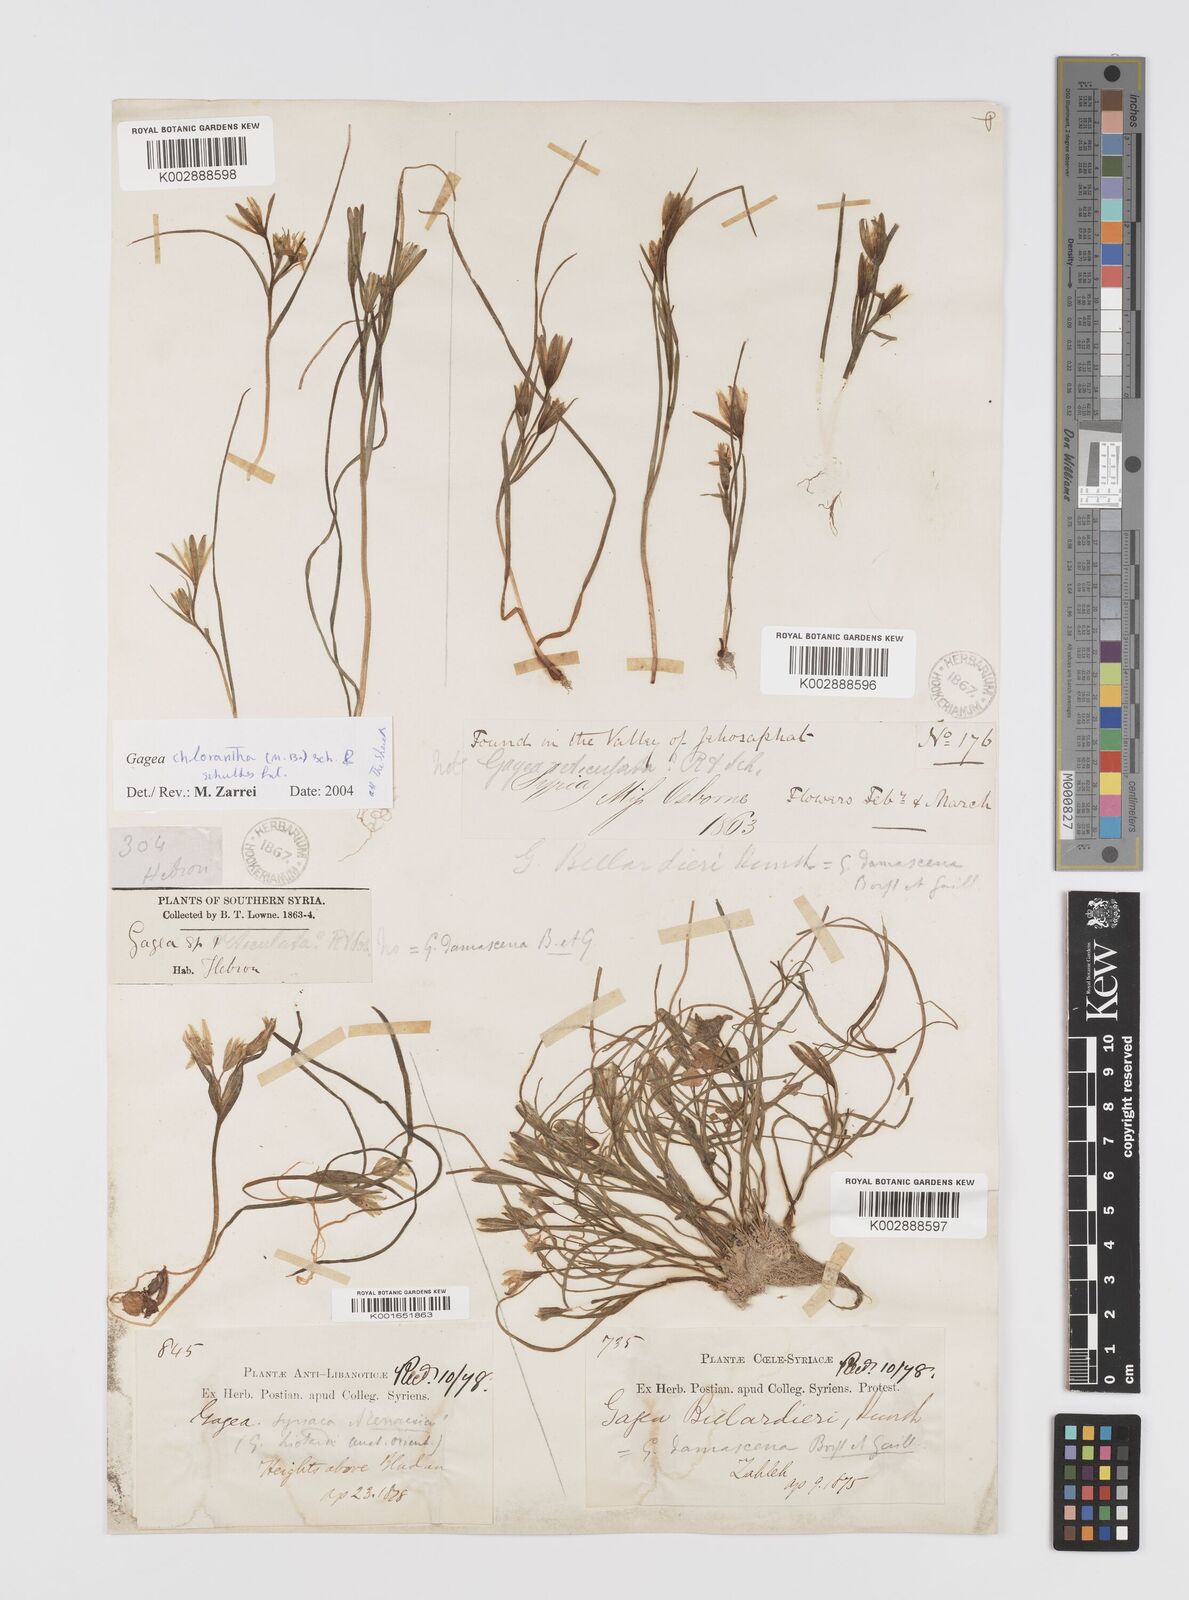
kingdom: Plantae
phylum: Tracheophyta
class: Liliopsida
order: Liliales
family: Liliaceae
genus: Gagea
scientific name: Gagea chlorantha
